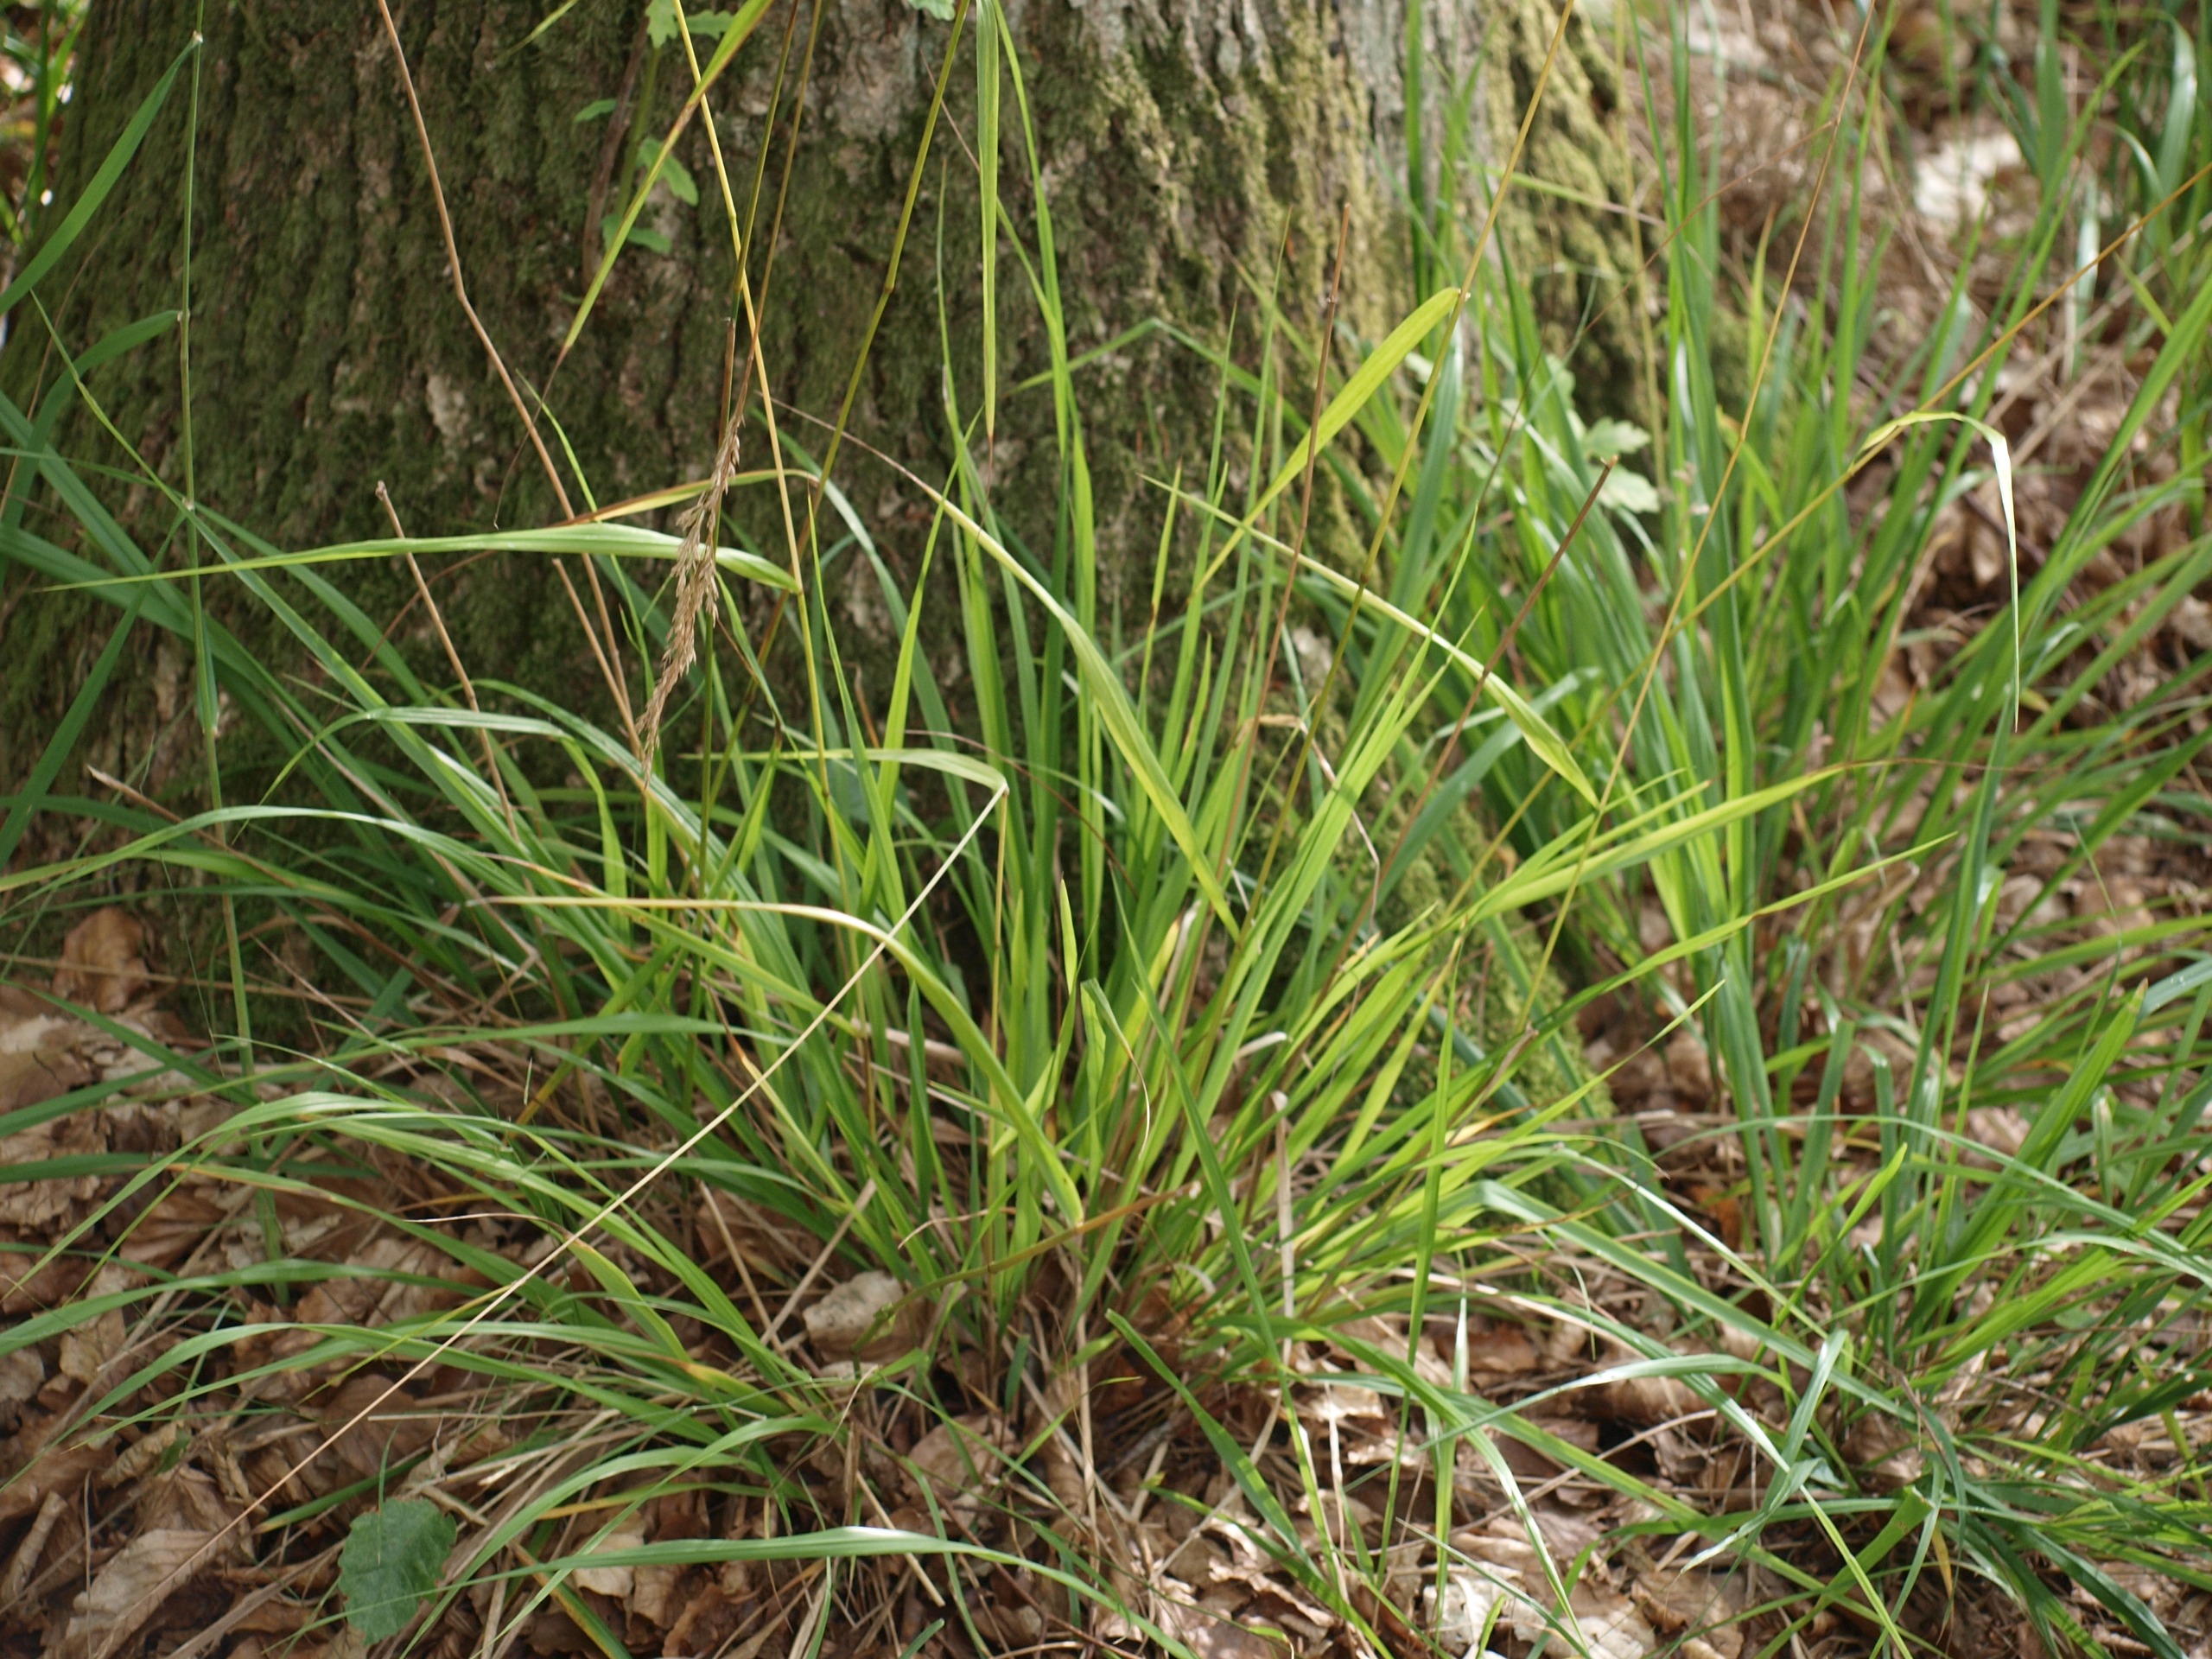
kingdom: Plantae
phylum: Tracheophyta
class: Liliopsida
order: Poales
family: Poaceae
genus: Festuca
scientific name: Festuca altissima
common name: Skov-svingel
